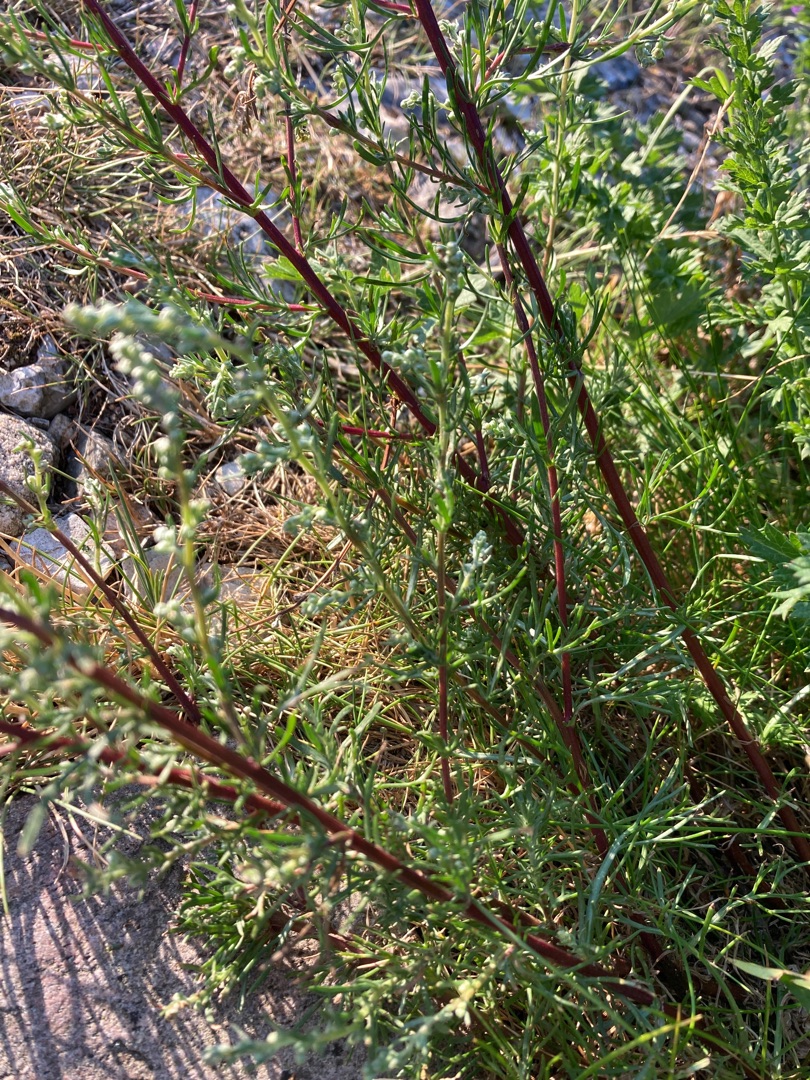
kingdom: Plantae
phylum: Tracheophyta
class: Magnoliopsida
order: Asterales
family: Asteraceae
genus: Artemisia
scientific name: Artemisia campestris
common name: Mark-bynke
